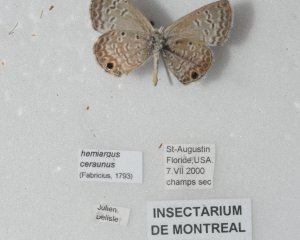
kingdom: Animalia
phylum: Arthropoda
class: Insecta
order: Lepidoptera
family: Lycaenidae
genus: Hemiargus
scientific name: Hemiargus ceraunus
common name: Ceraunus Blue
